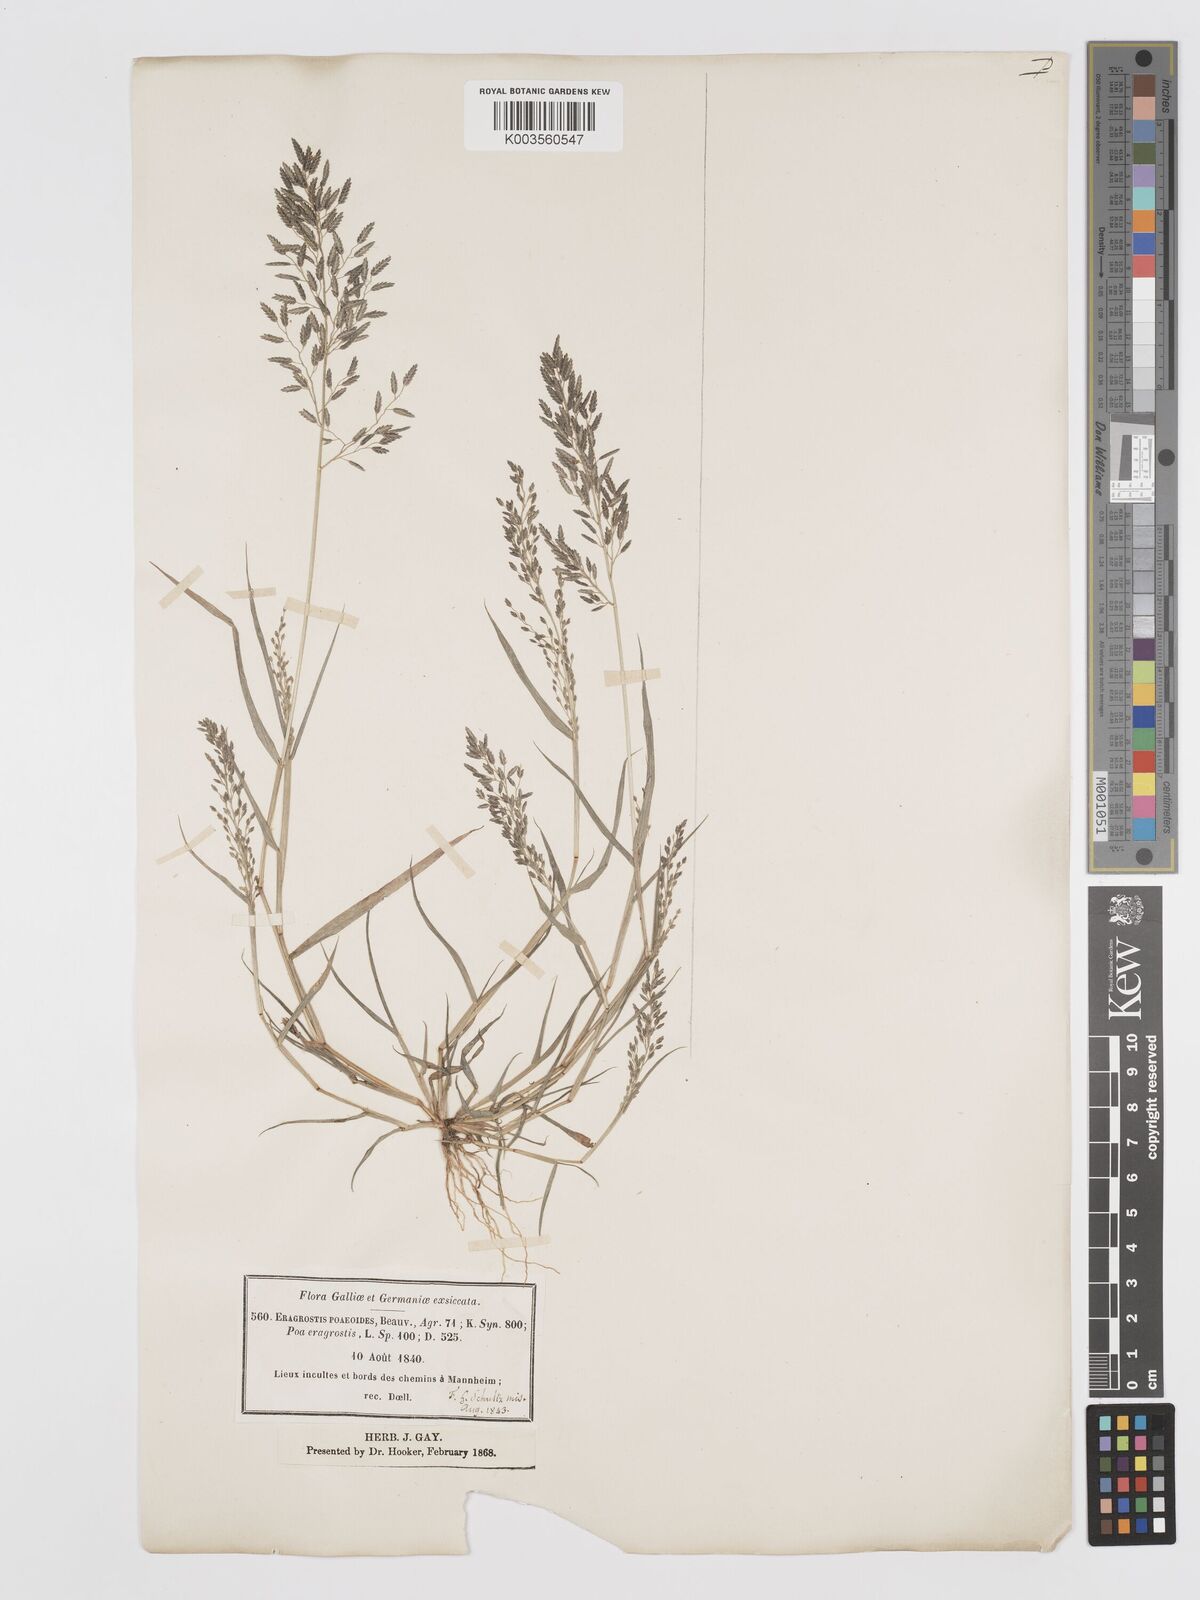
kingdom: Plantae
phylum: Tracheophyta
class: Liliopsida
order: Poales
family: Poaceae
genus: Eragrostis
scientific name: Eragrostis cilianensis
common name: Stinkgrass
